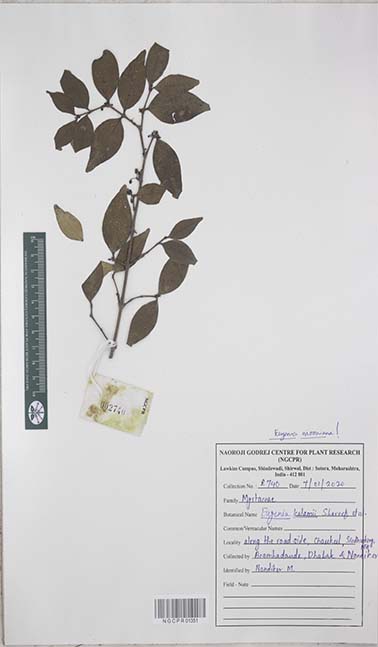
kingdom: Plantae
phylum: Tracheophyta
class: Magnoliopsida
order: Myrtales
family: Myrtaceae
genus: Eugenia
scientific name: Eugenia thwaitesii
